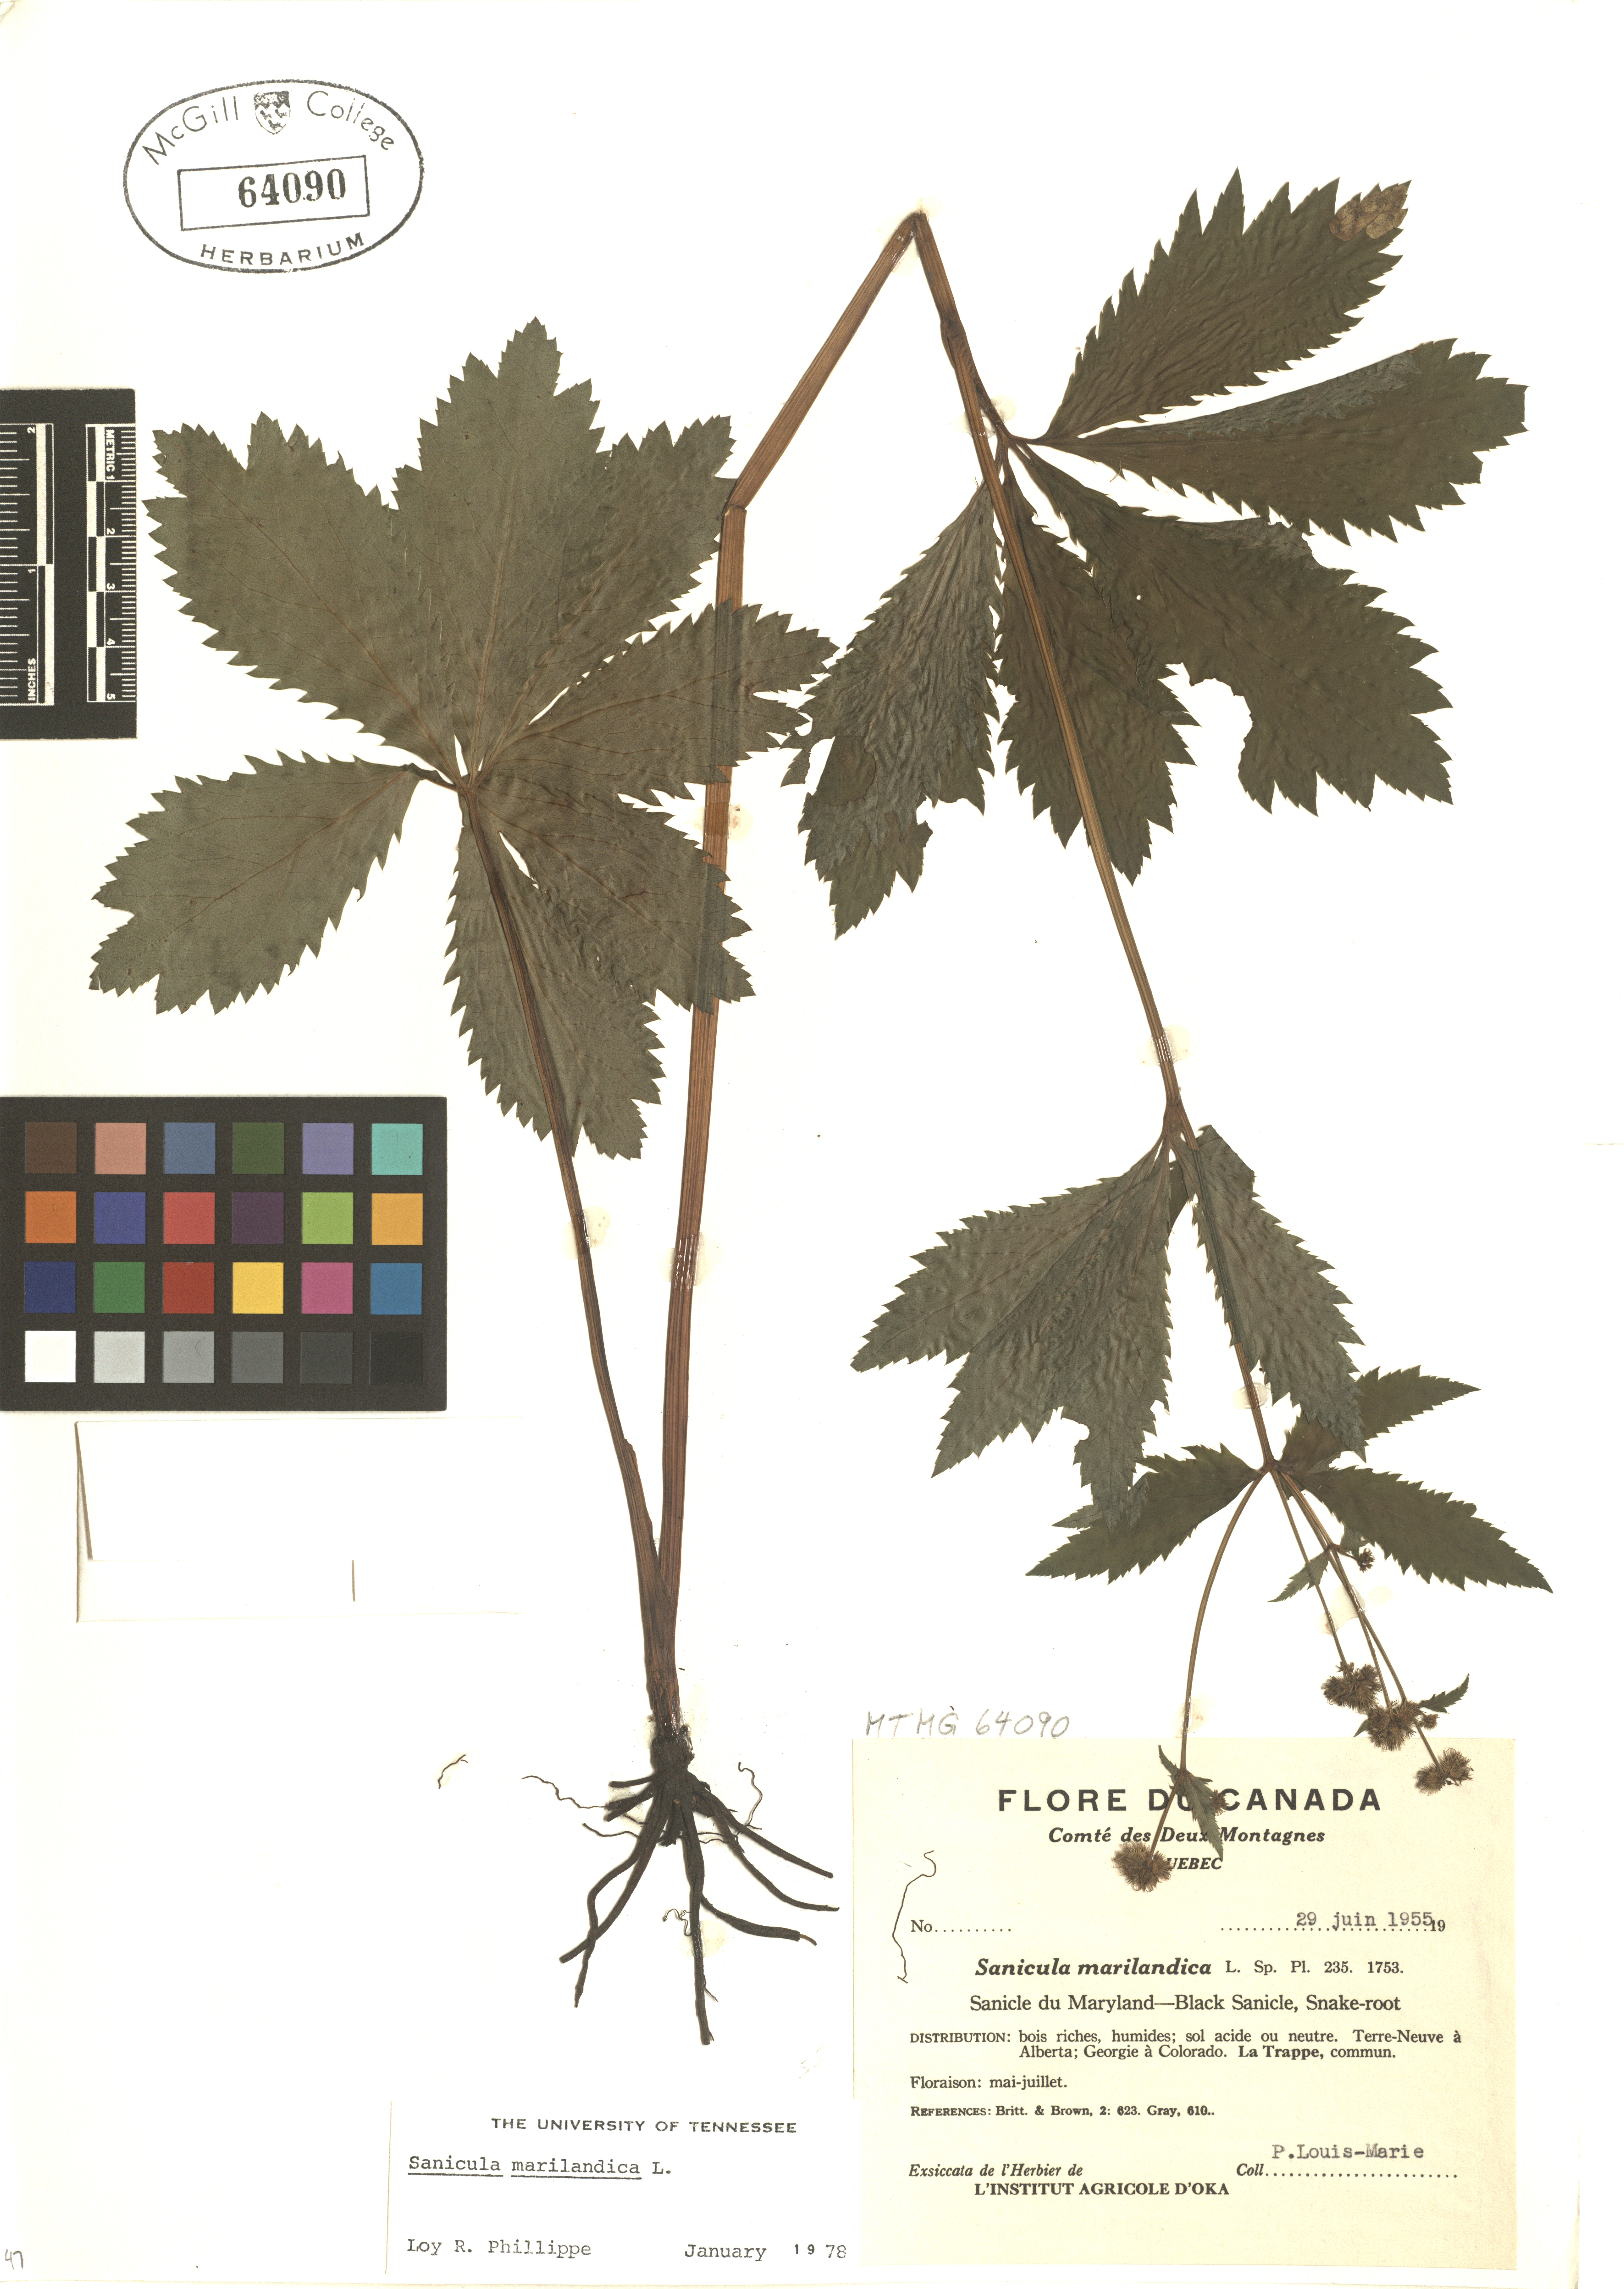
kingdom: Plantae
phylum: Tracheophyta
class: Magnoliopsida
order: Apiales
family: Apiaceae
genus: Sanicula
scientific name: Sanicula marilandica
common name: Black snakeroot
